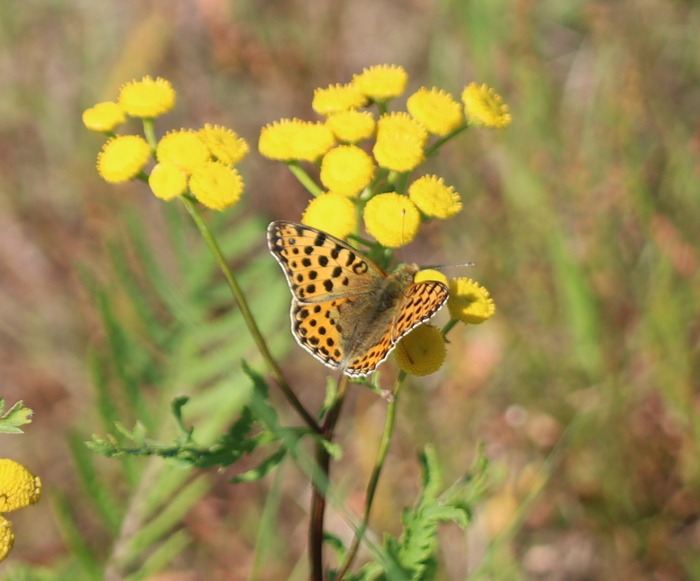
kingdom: Animalia
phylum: Arthropoda
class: Insecta
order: Lepidoptera
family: Nymphalidae
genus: Issoria
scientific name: Issoria lathonia
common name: Storplettet perlemorsommerfugl
